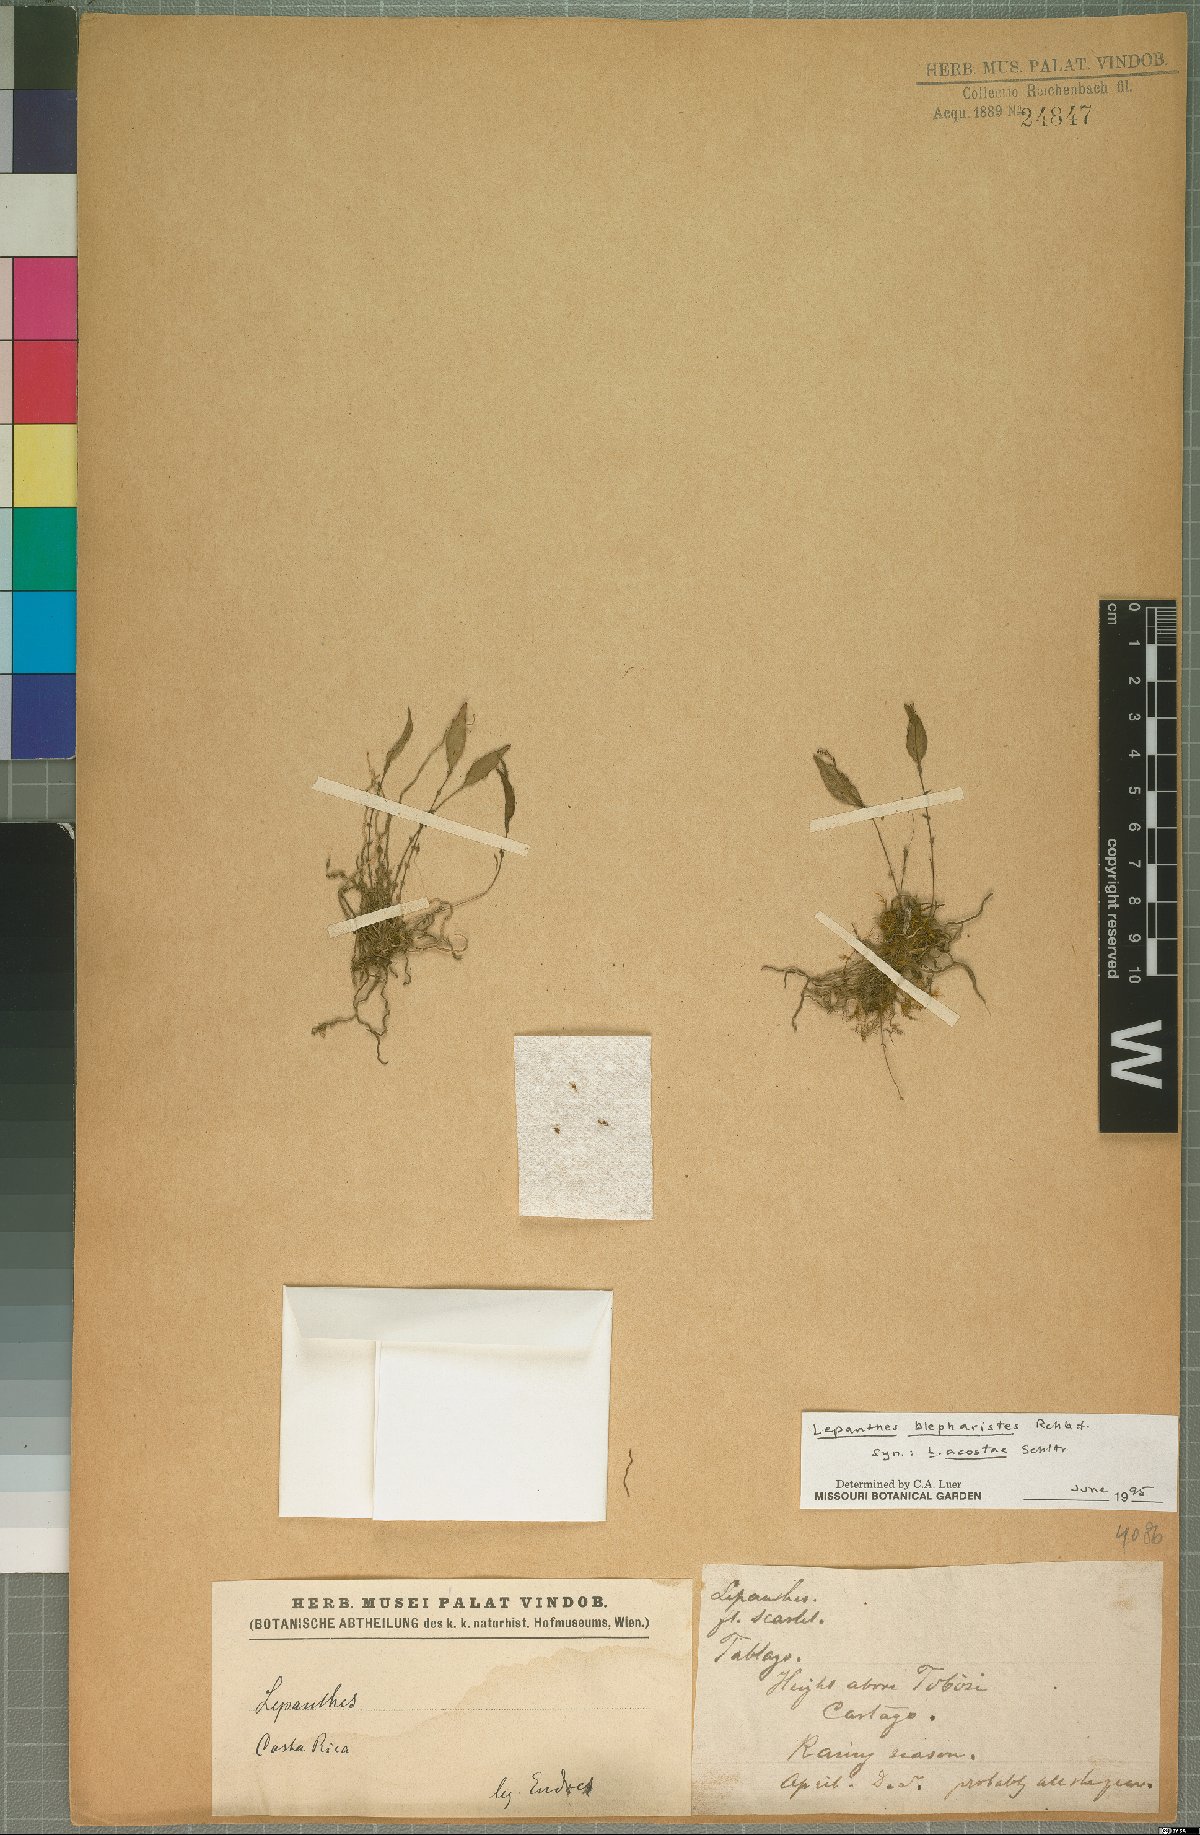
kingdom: Plantae
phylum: Tracheophyta
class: Liliopsida
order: Asparagales
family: Orchidaceae
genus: Lepanthes
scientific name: Lepanthes blepharistes
